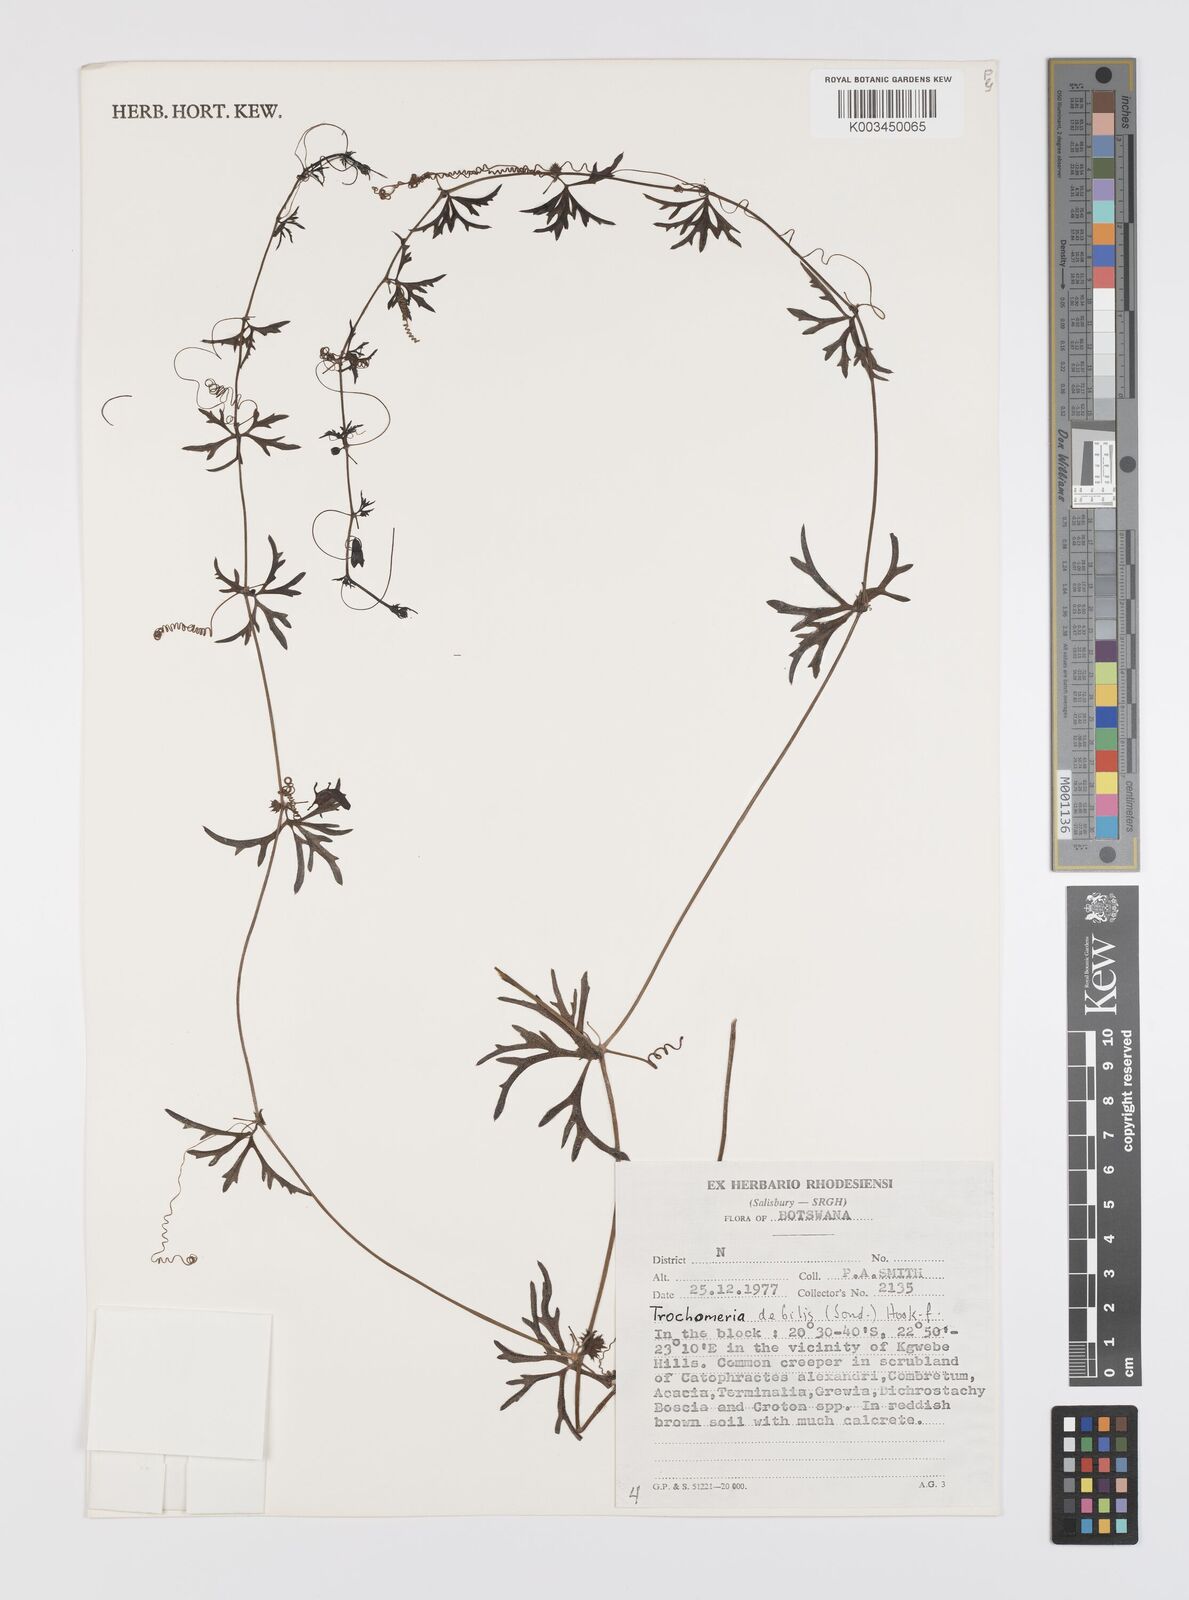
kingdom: Plantae
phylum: Tracheophyta
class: Magnoliopsida
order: Cucurbitales
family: Cucurbitaceae
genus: Trochomeria
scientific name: Trochomeria debilis
